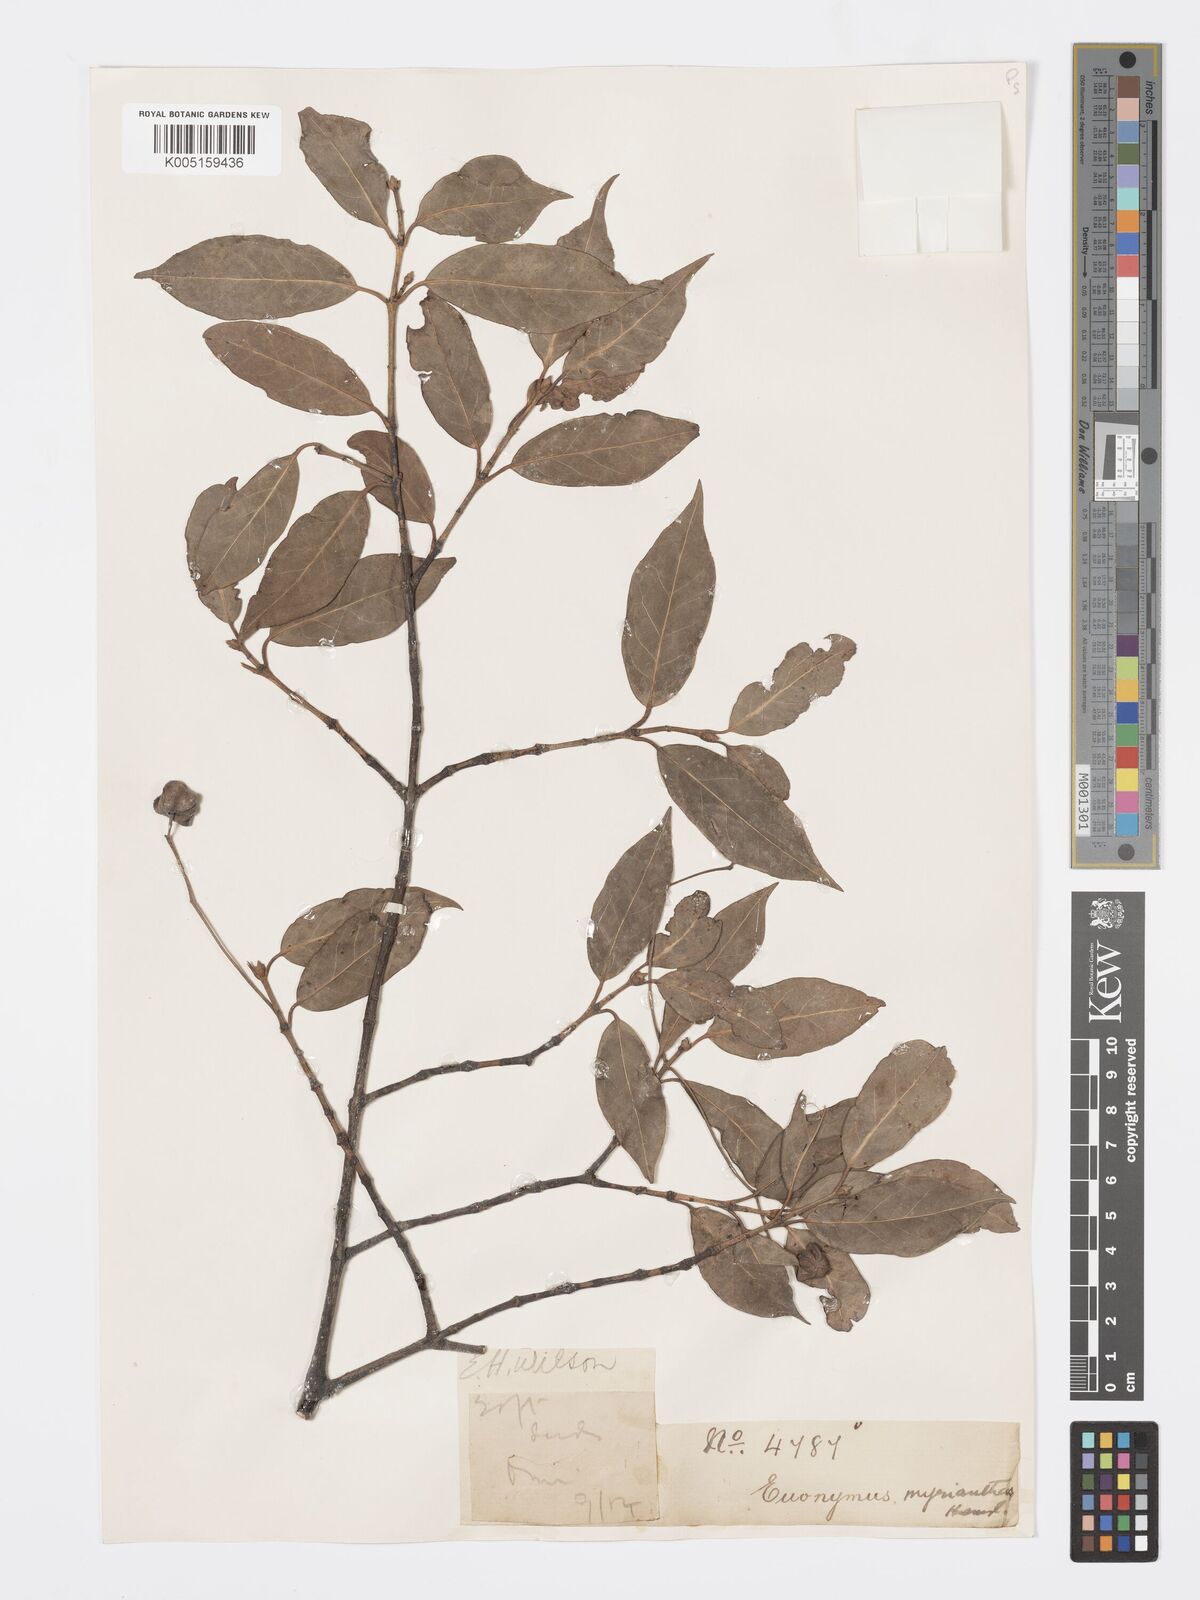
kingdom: Plantae
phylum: Tracheophyta
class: Magnoliopsida
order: Celastrales
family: Celastraceae
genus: Euonymus
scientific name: Euonymus myrianthus
